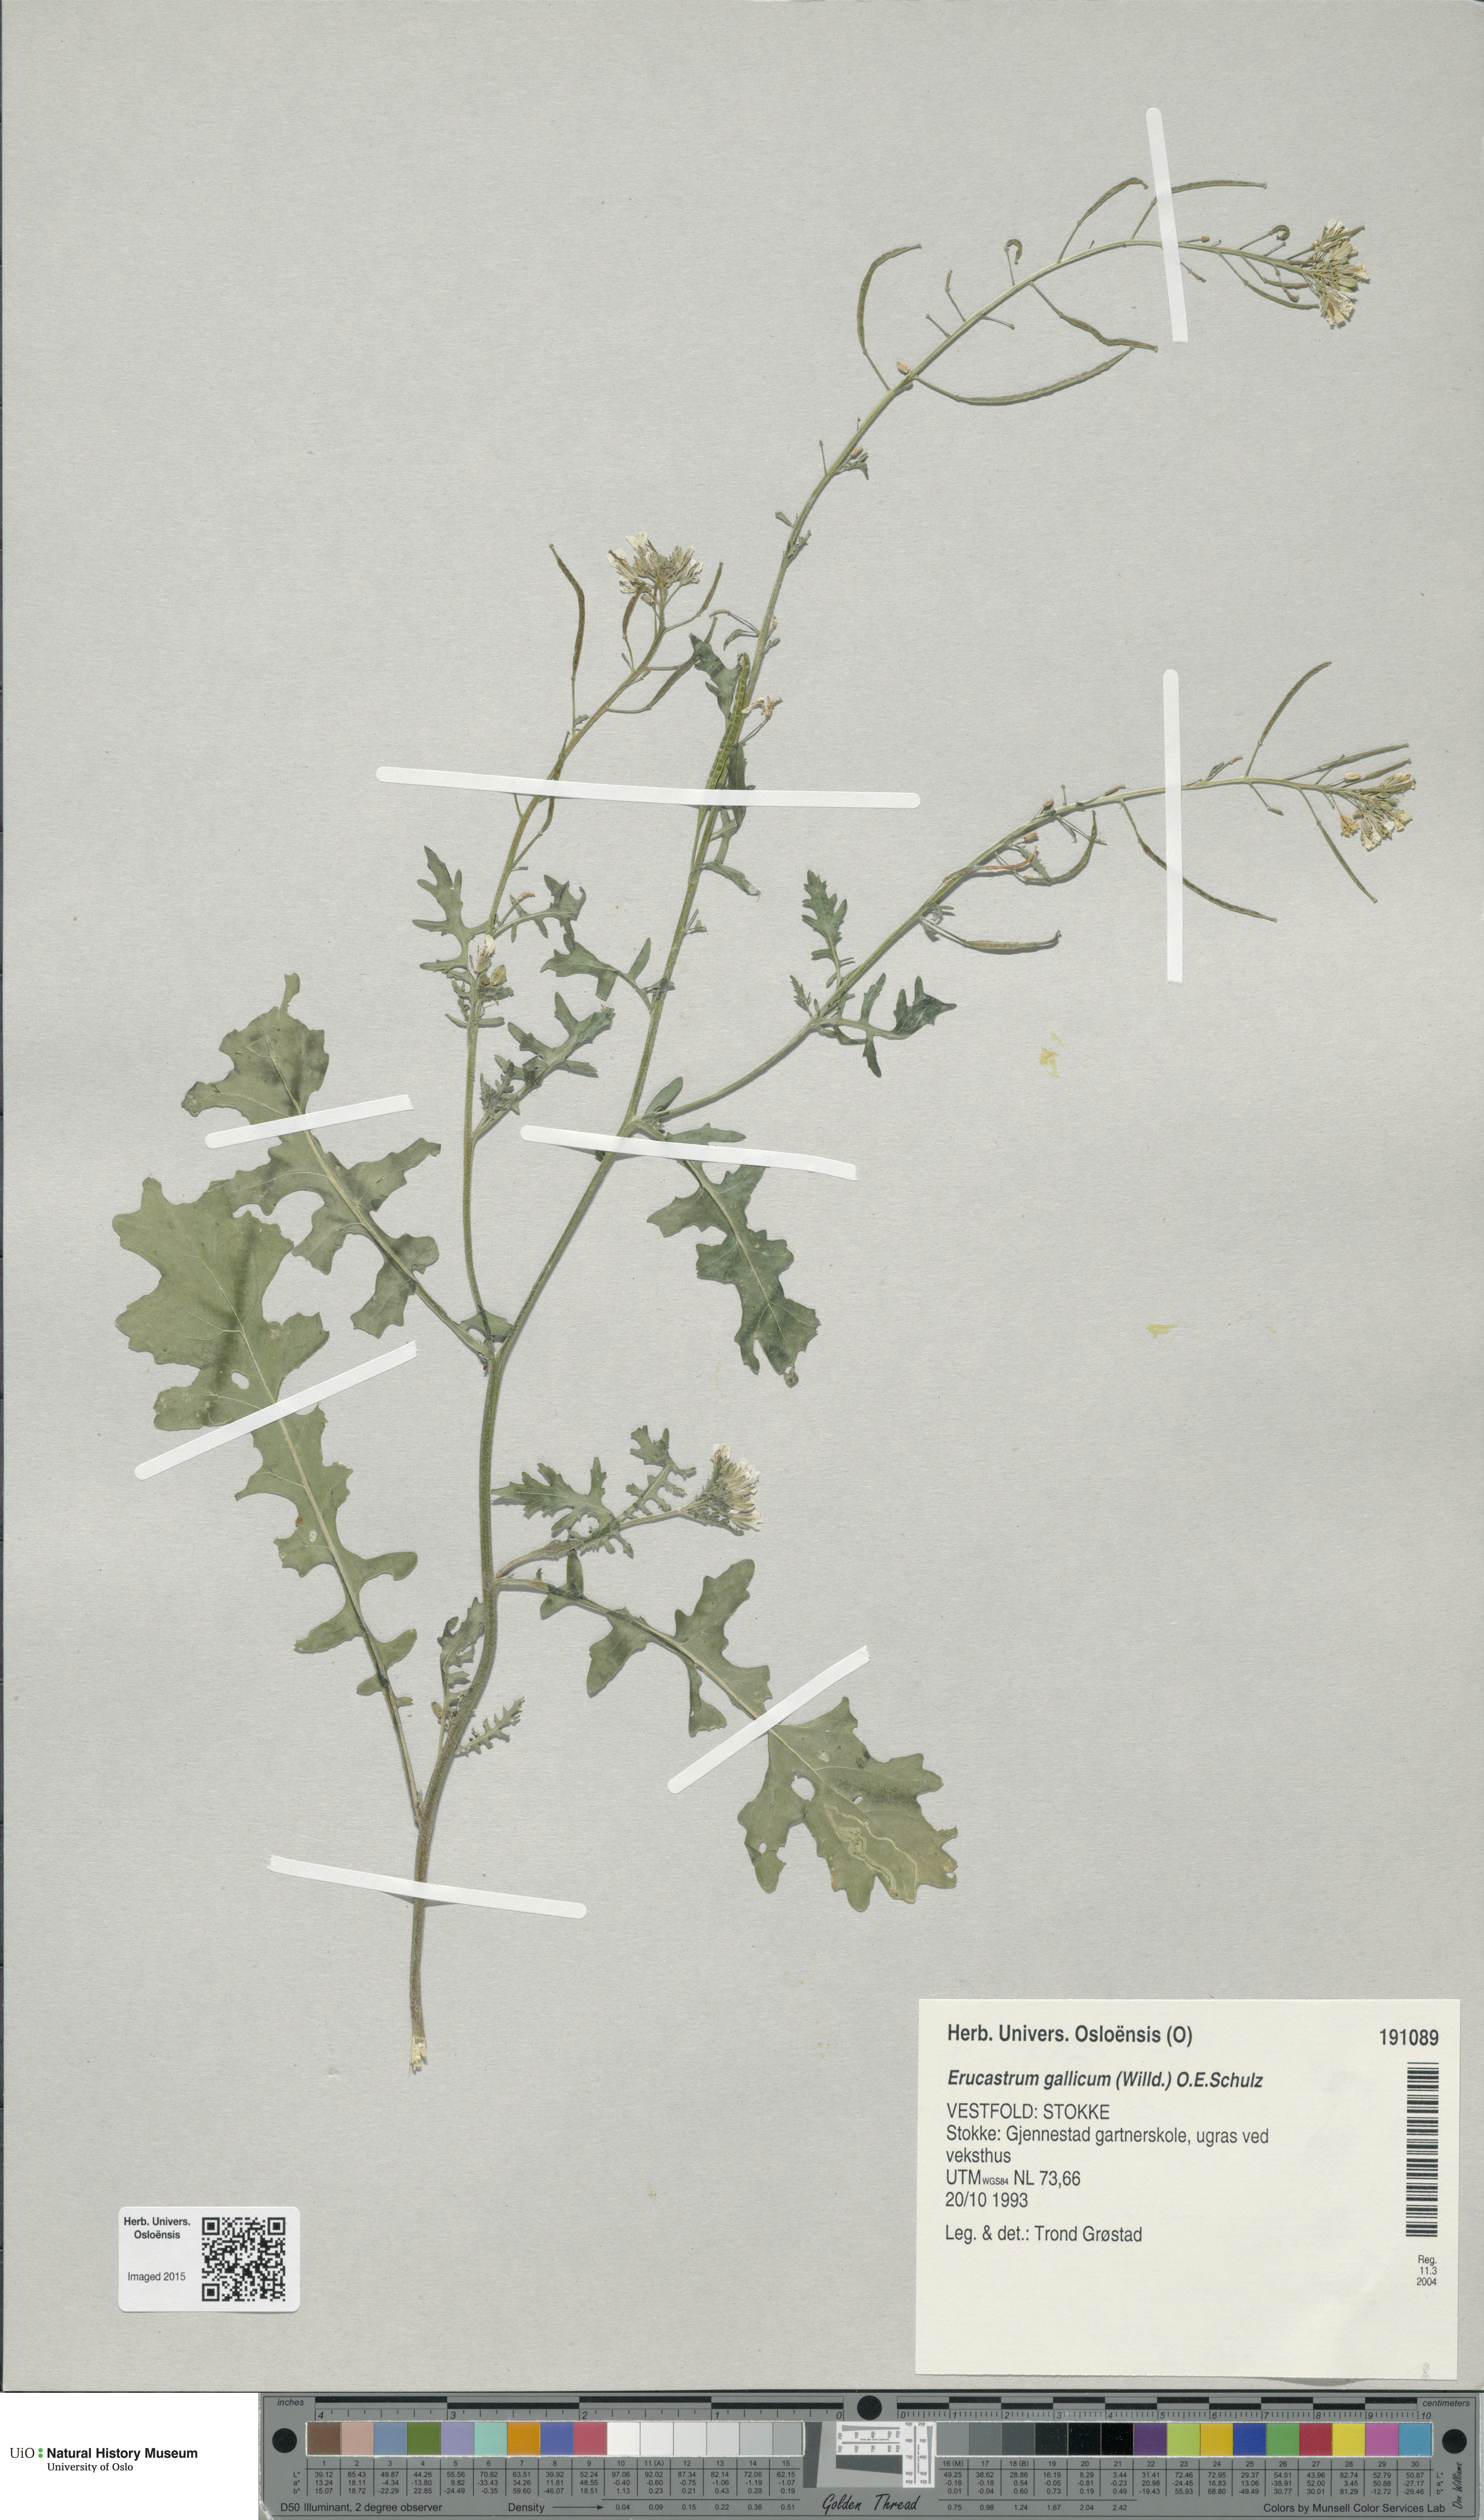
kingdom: Plantae
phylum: Tracheophyta
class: Magnoliopsida
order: Brassicales
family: Brassicaceae
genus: Erucastrum
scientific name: Erucastrum gallicum
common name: Hairy rocket
